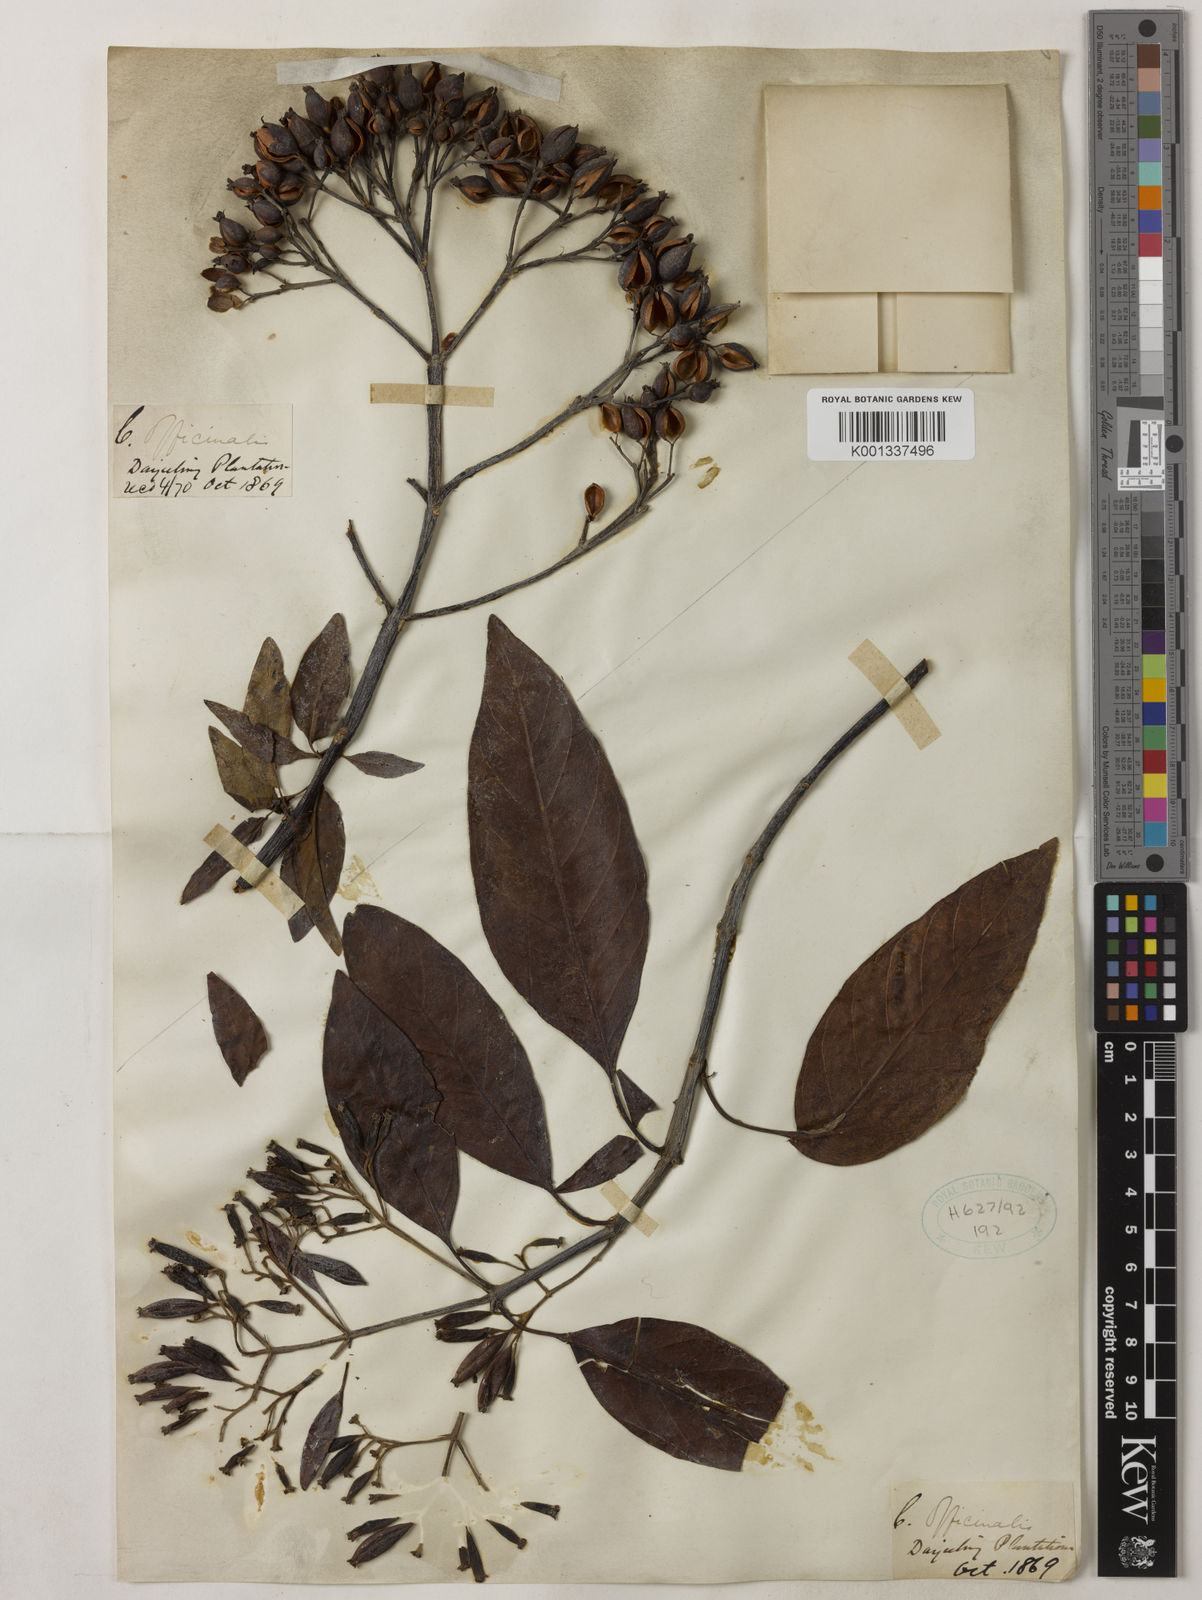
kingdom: Plantae
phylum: Tracheophyta
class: Magnoliopsida
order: Gentianales
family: Rubiaceae
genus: Cinchona
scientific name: Cinchona officinalis
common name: Lojabark
